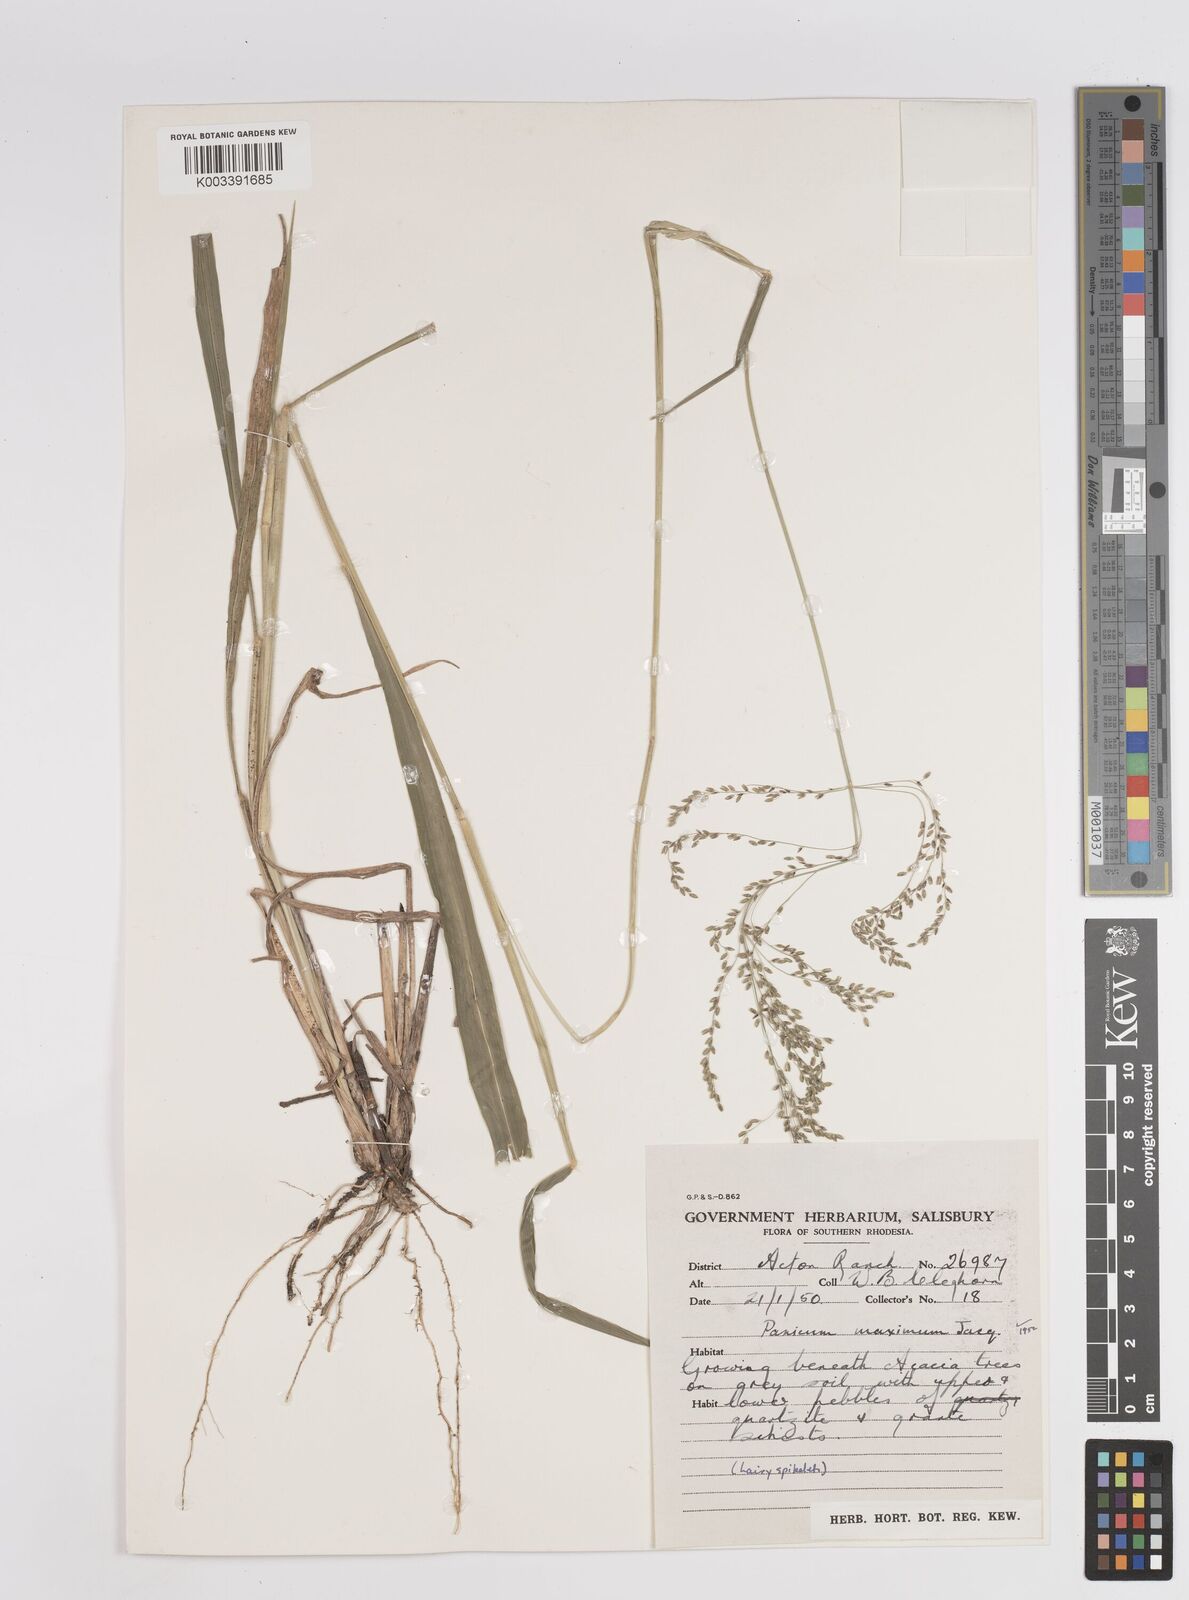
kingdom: Plantae
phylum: Tracheophyta
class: Liliopsida
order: Poales
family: Poaceae
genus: Megathyrsus
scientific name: Megathyrsus maximus
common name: Guineagrass
